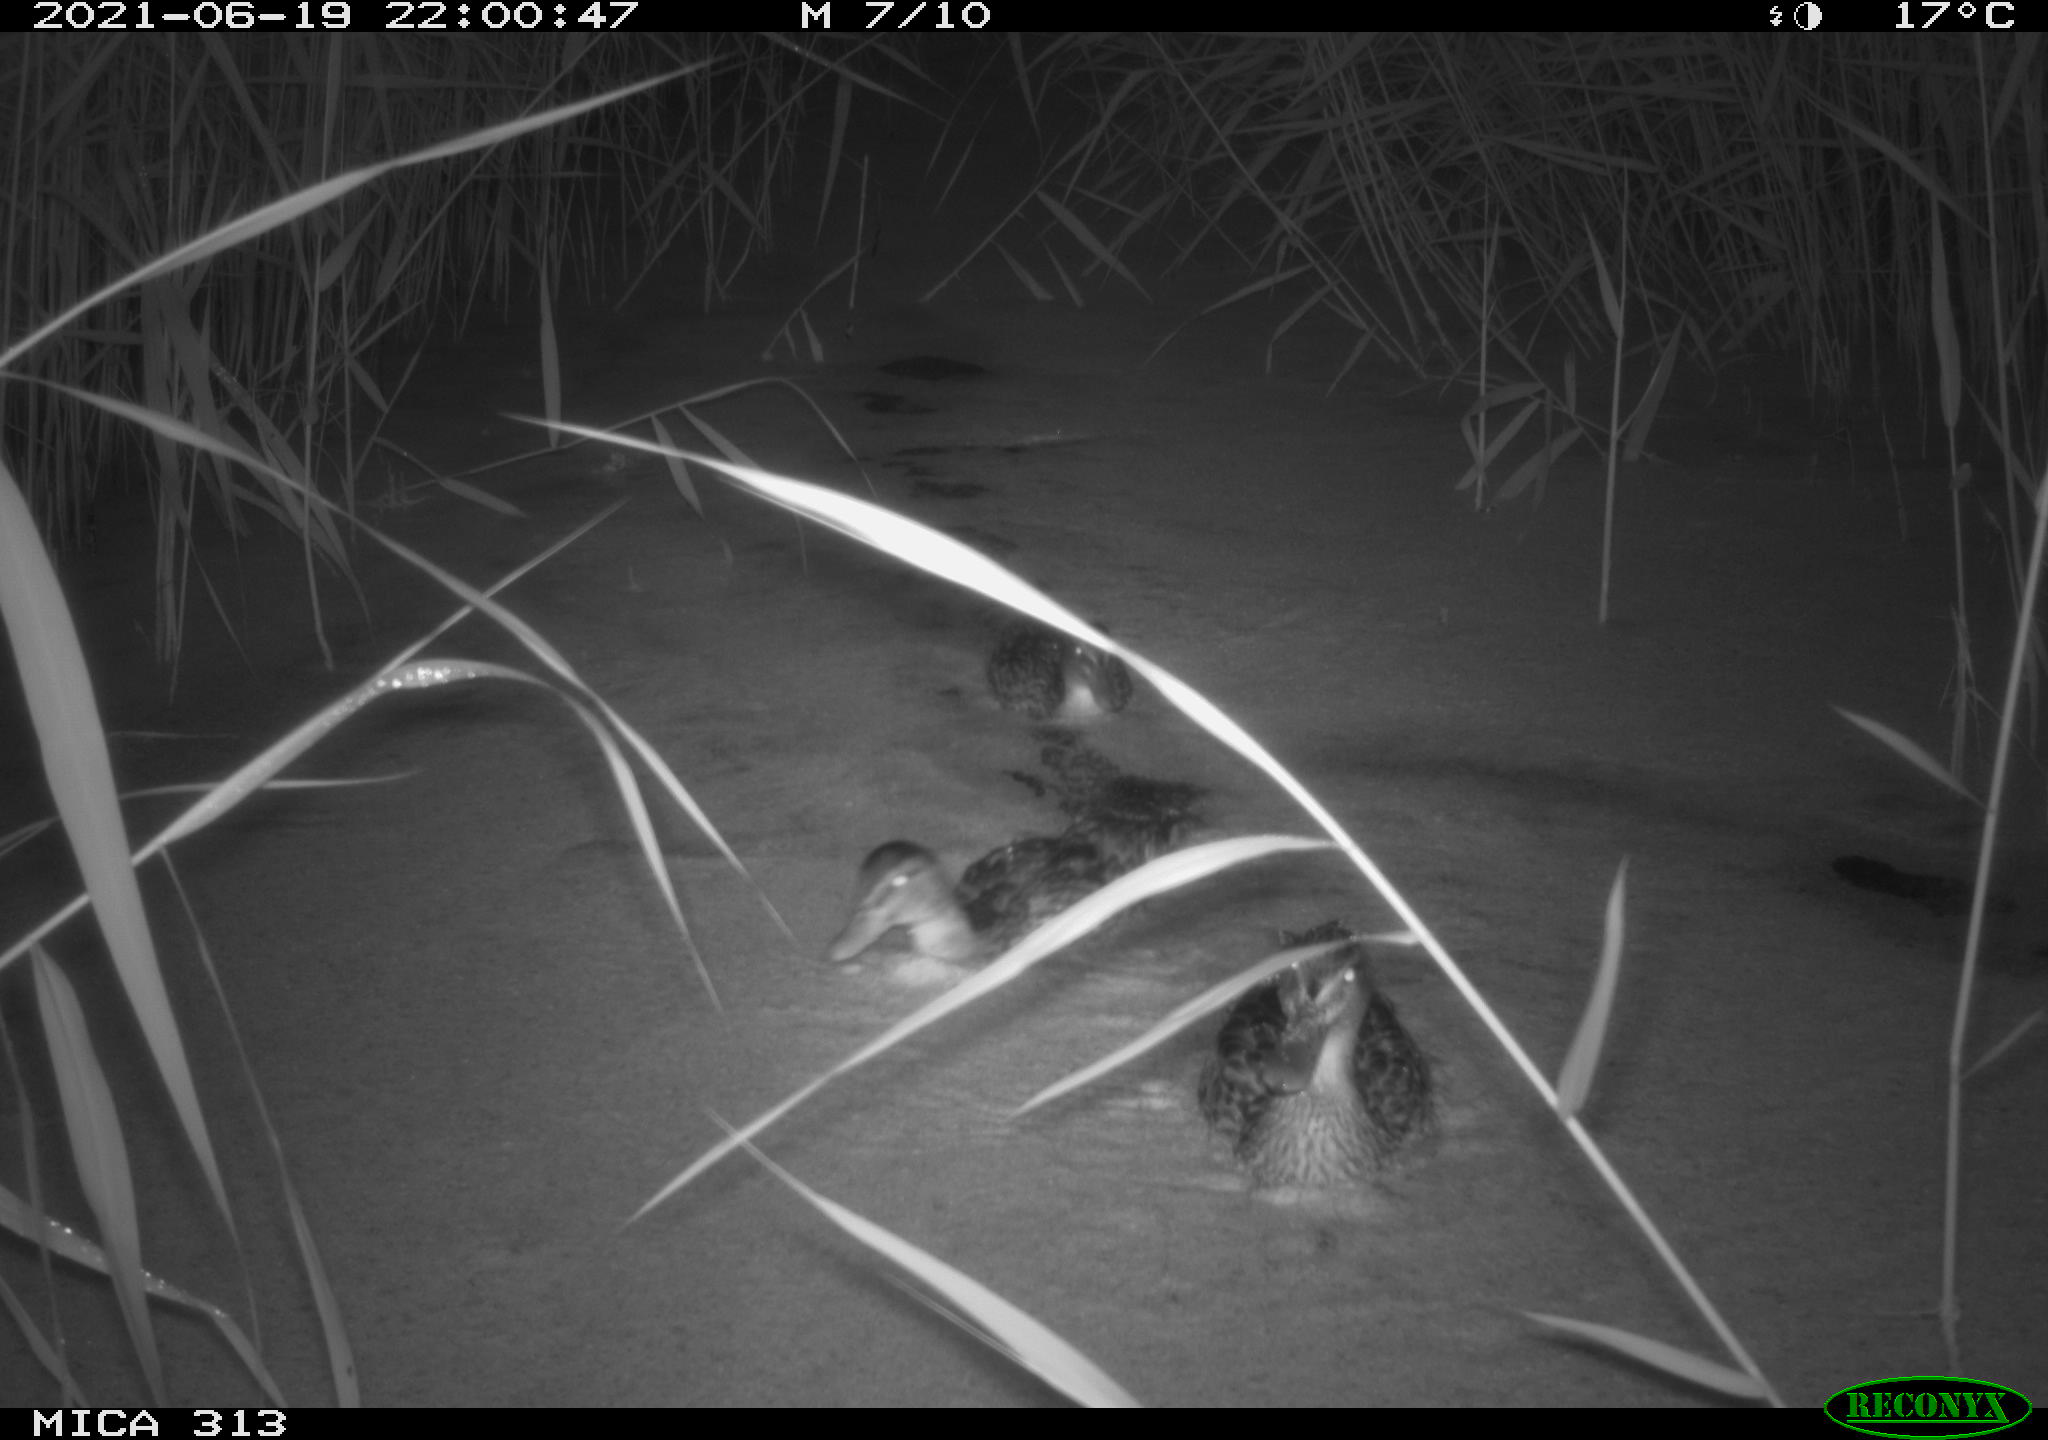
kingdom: Animalia
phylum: Chordata
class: Aves
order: Anseriformes
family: Anatidae
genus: Anas
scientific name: Anas
